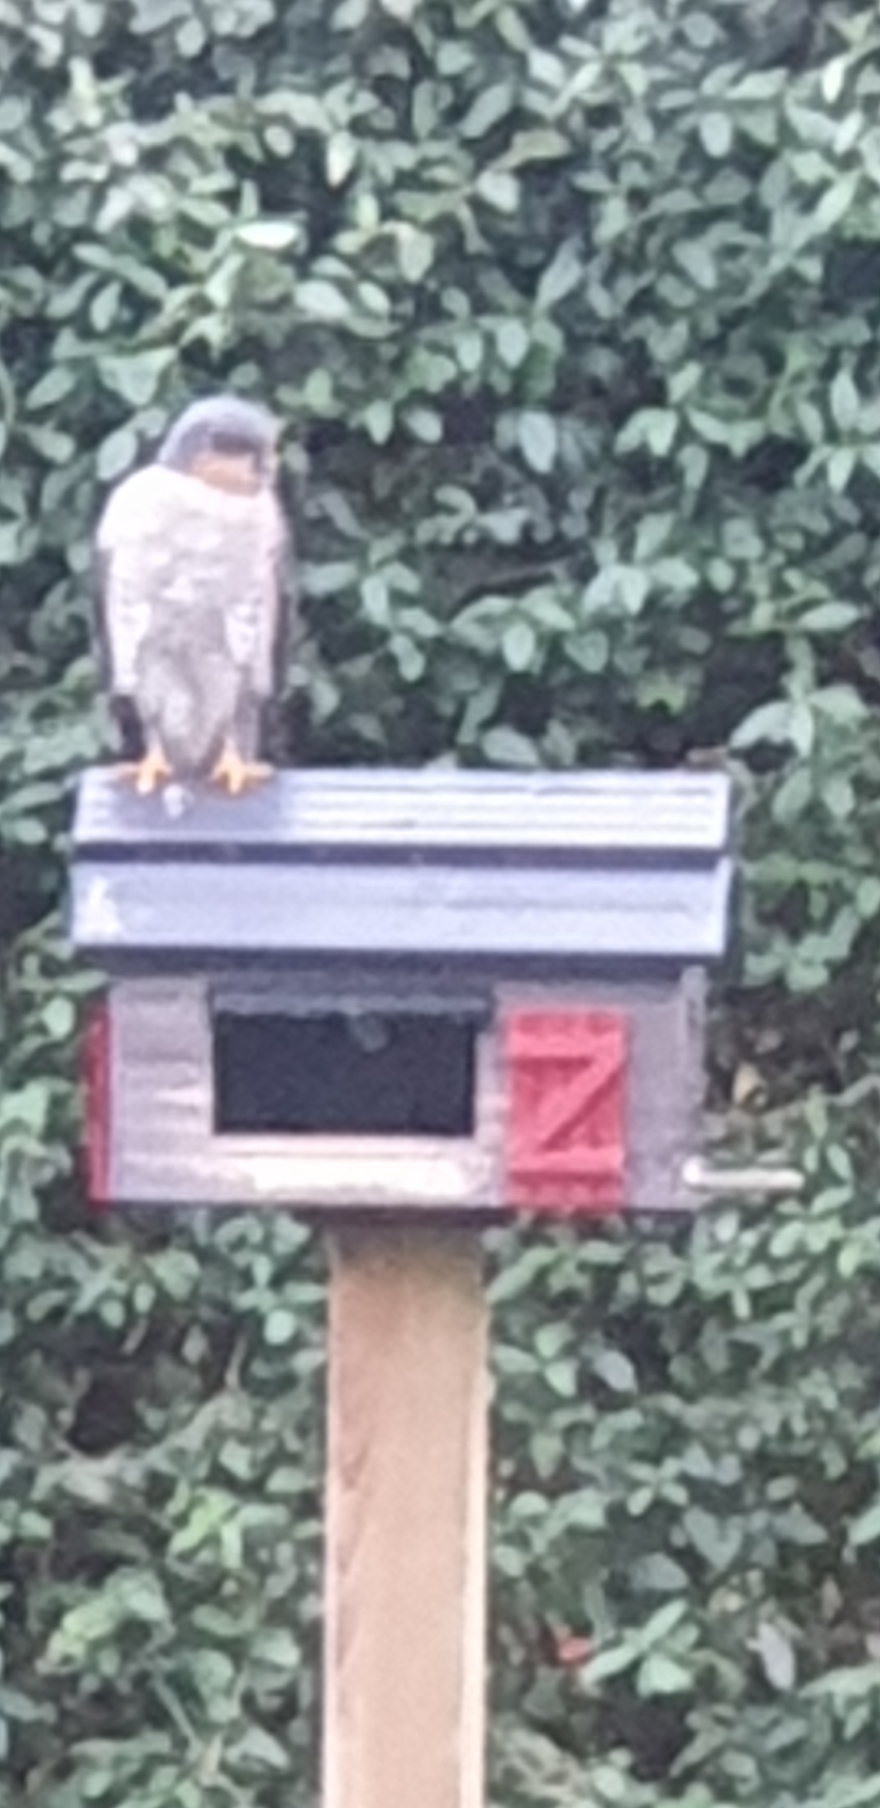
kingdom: Animalia
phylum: Chordata
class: Aves
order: Accipitriformes
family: Accipitridae
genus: Accipiter
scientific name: Accipiter nisus
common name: Spurvehøg
